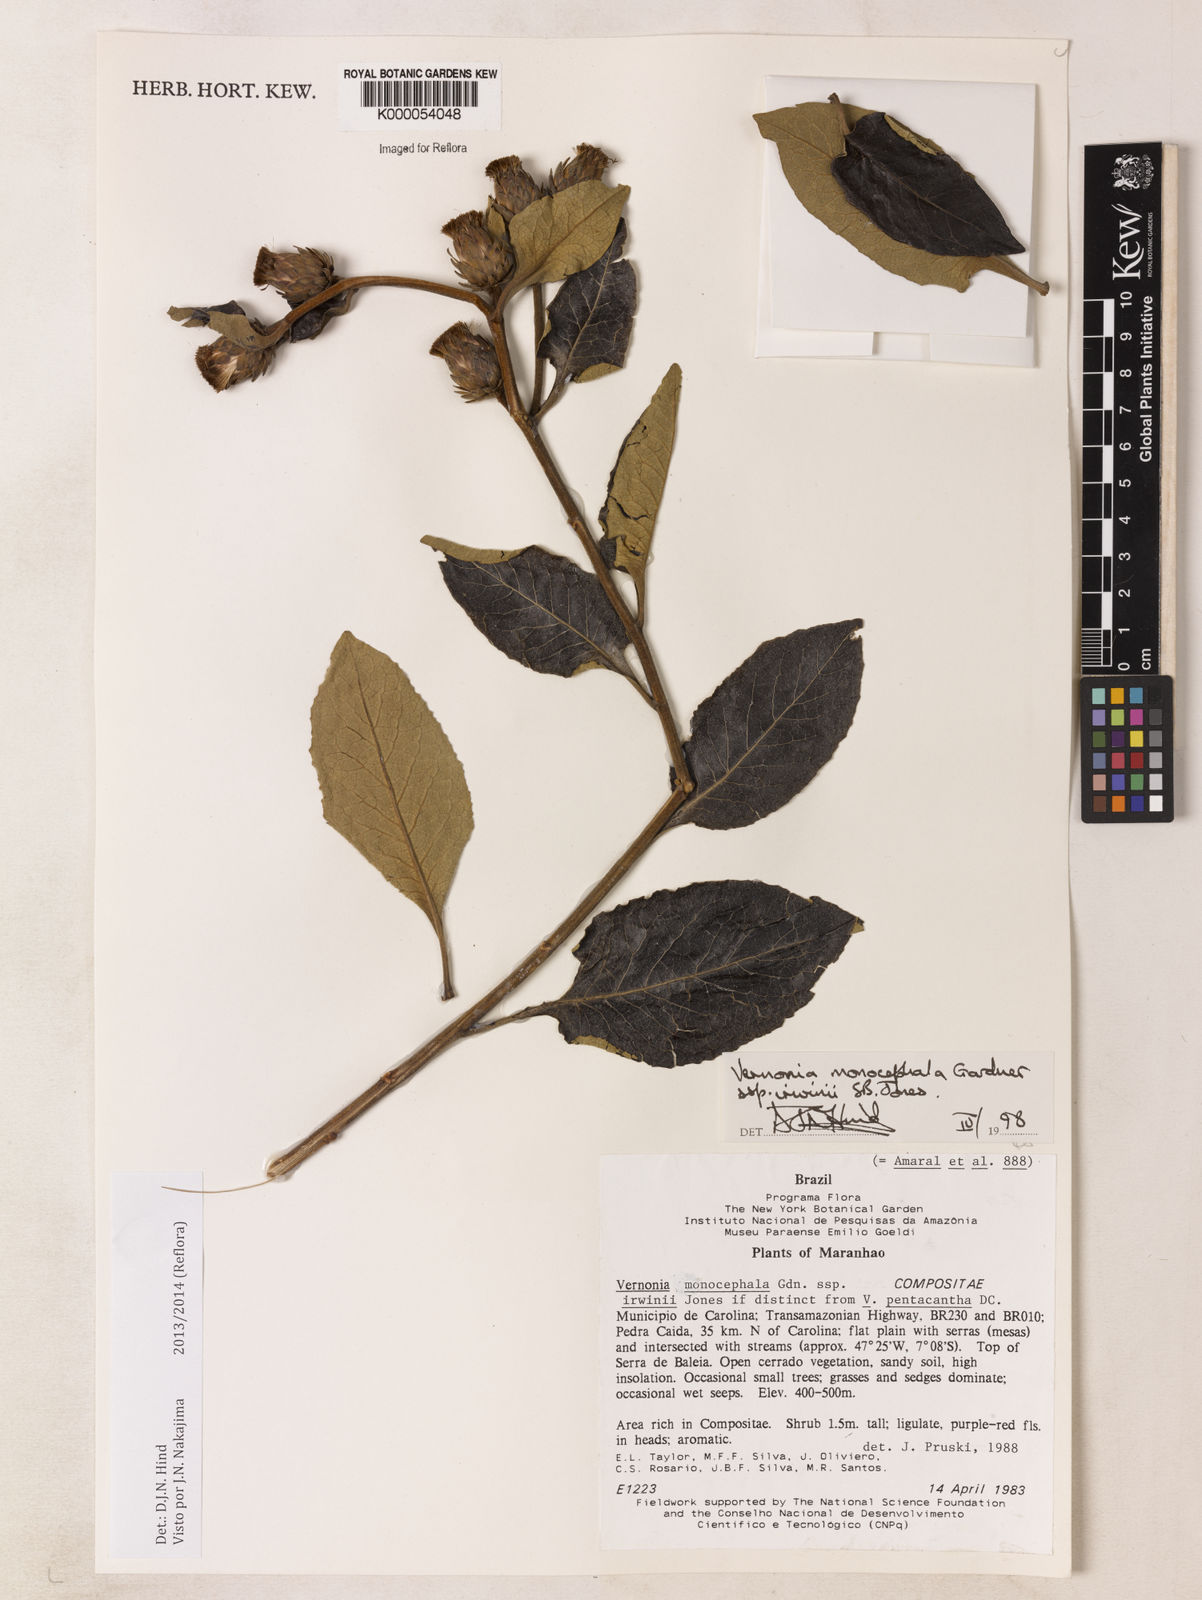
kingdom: Plantae
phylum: Tracheophyta
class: Magnoliopsida
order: Asterales
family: Asteraceae
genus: Lessingianthus
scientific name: Lessingianthus semirii
